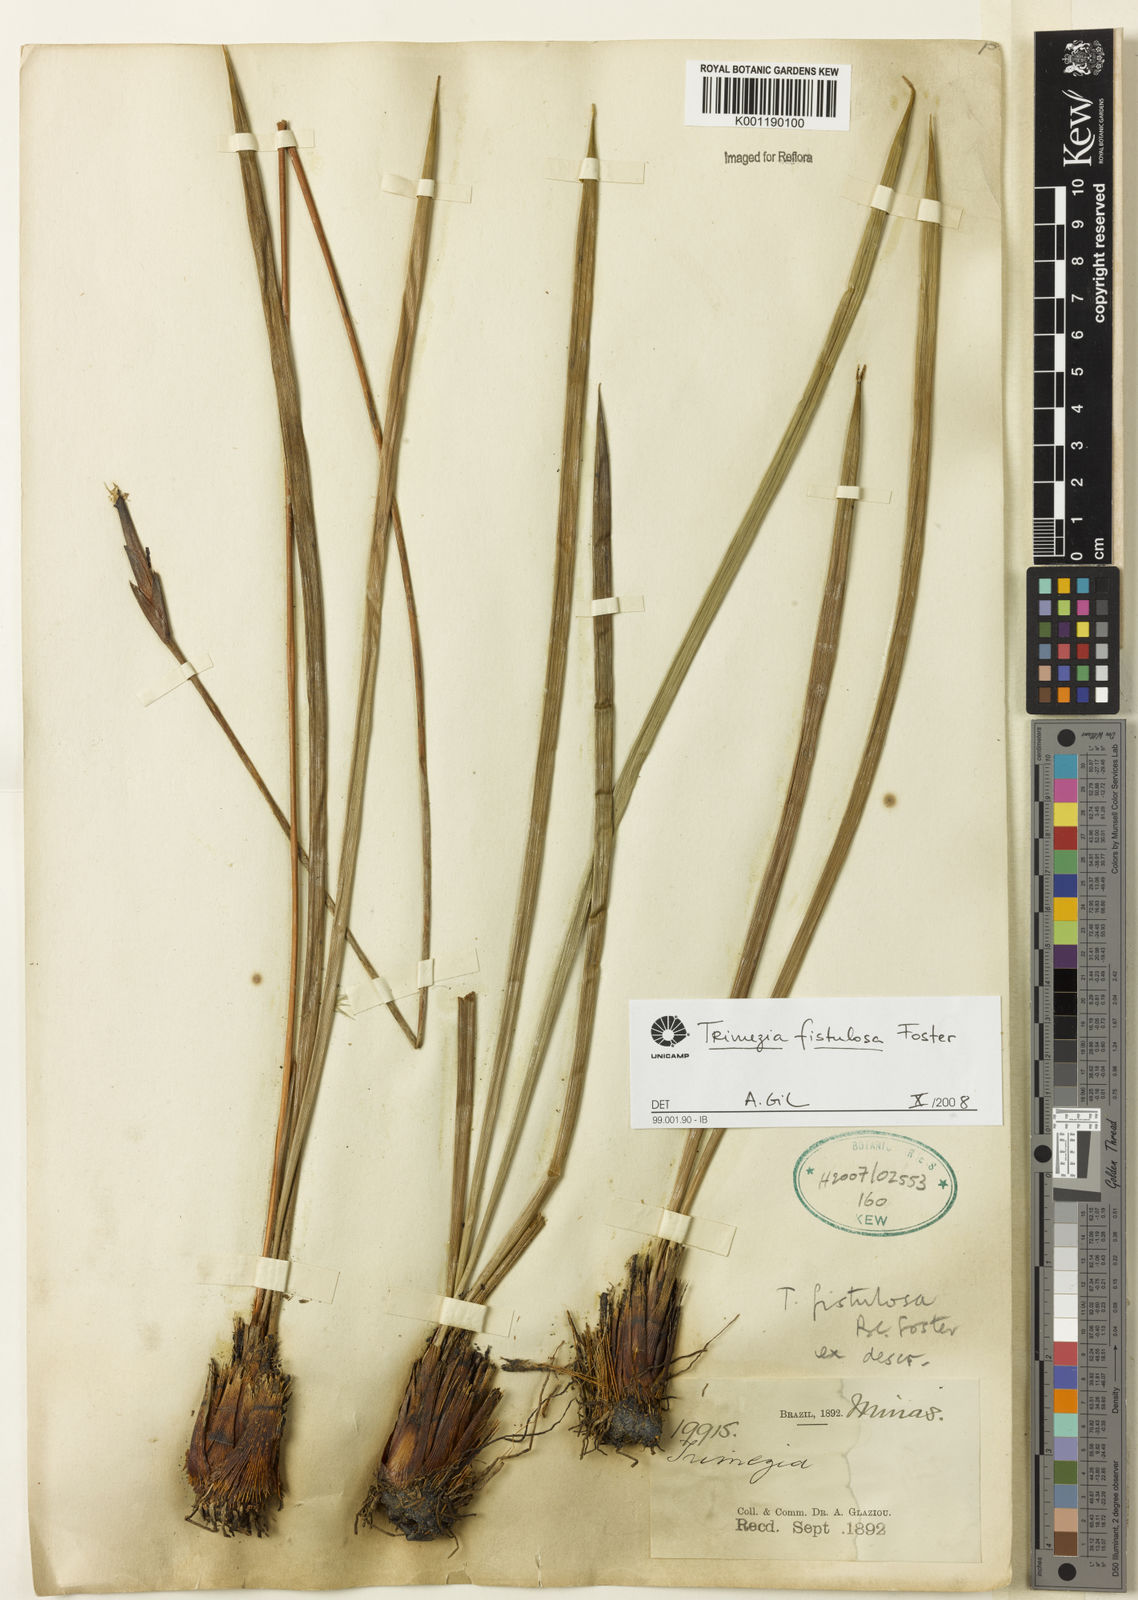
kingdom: Plantae
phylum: Tracheophyta
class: Liliopsida
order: Asparagales
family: Iridaceae
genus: Trimezia
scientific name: Trimezia fistulosa
